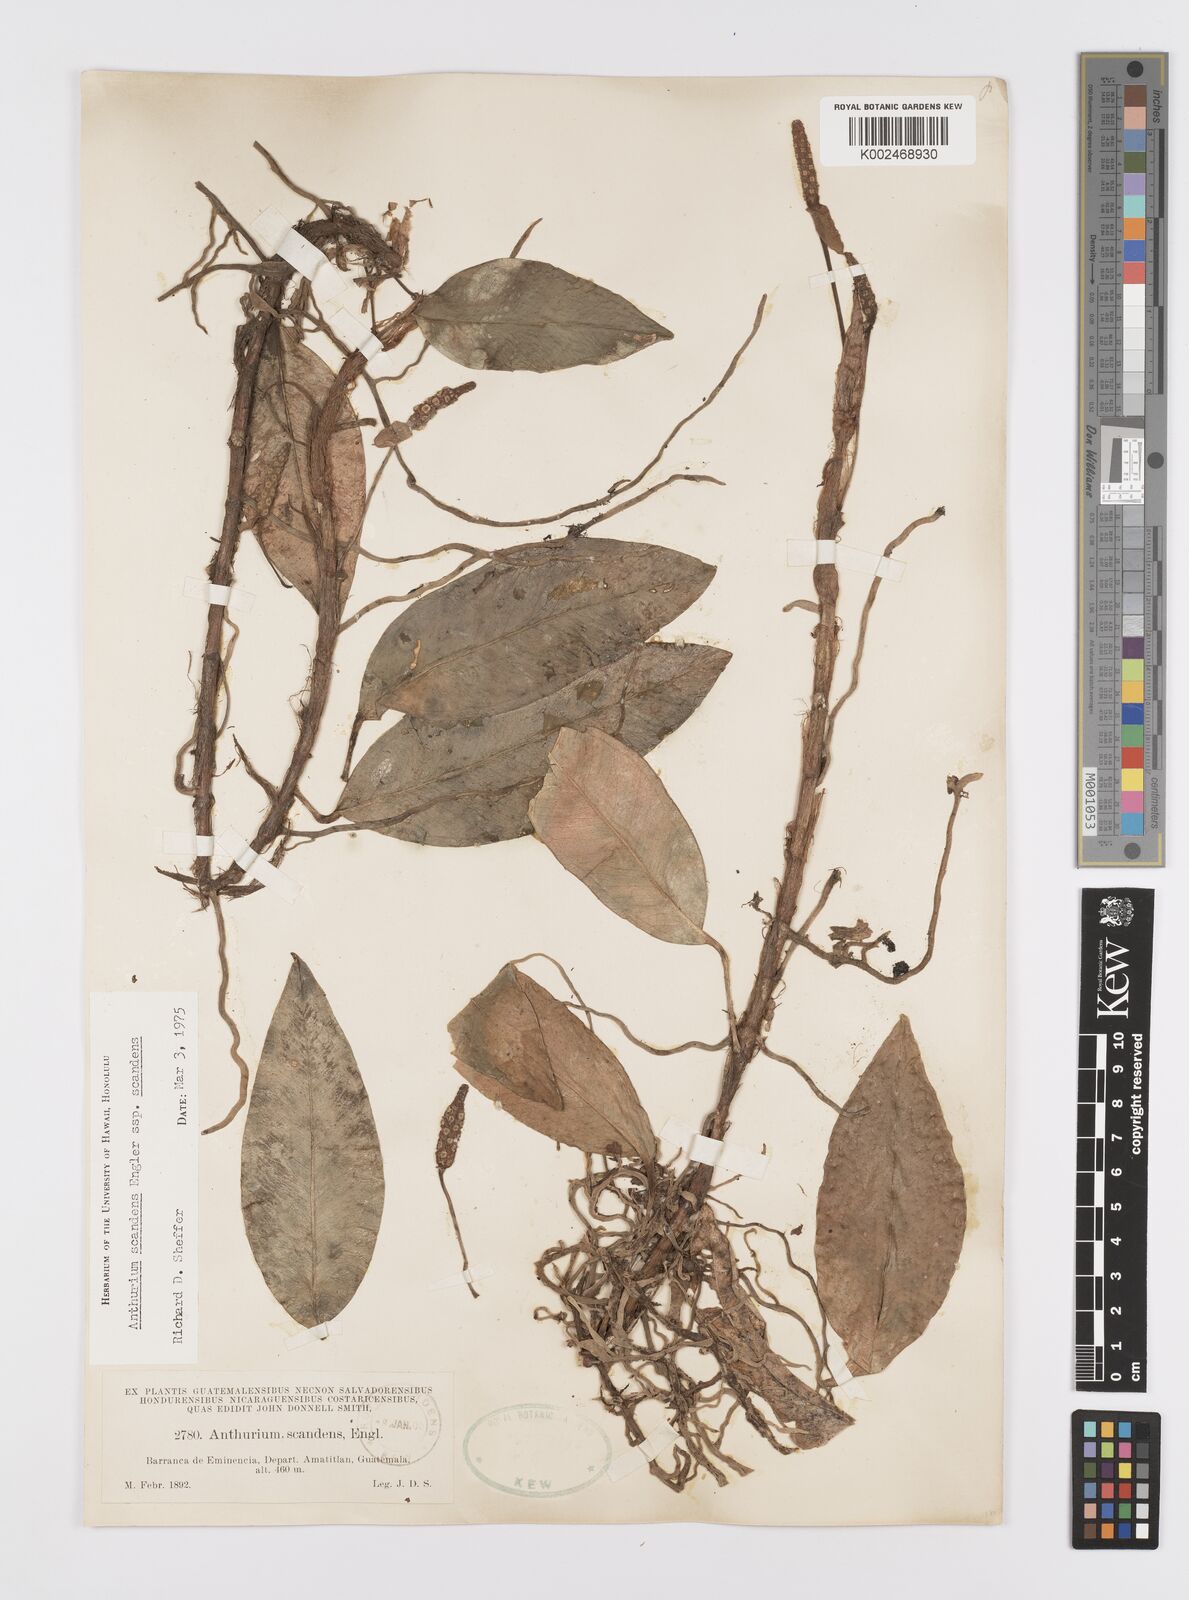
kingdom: Plantae
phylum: Tracheophyta
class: Liliopsida
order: Alismatales
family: Araceae
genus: Anthurium
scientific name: Anthurium scandens
